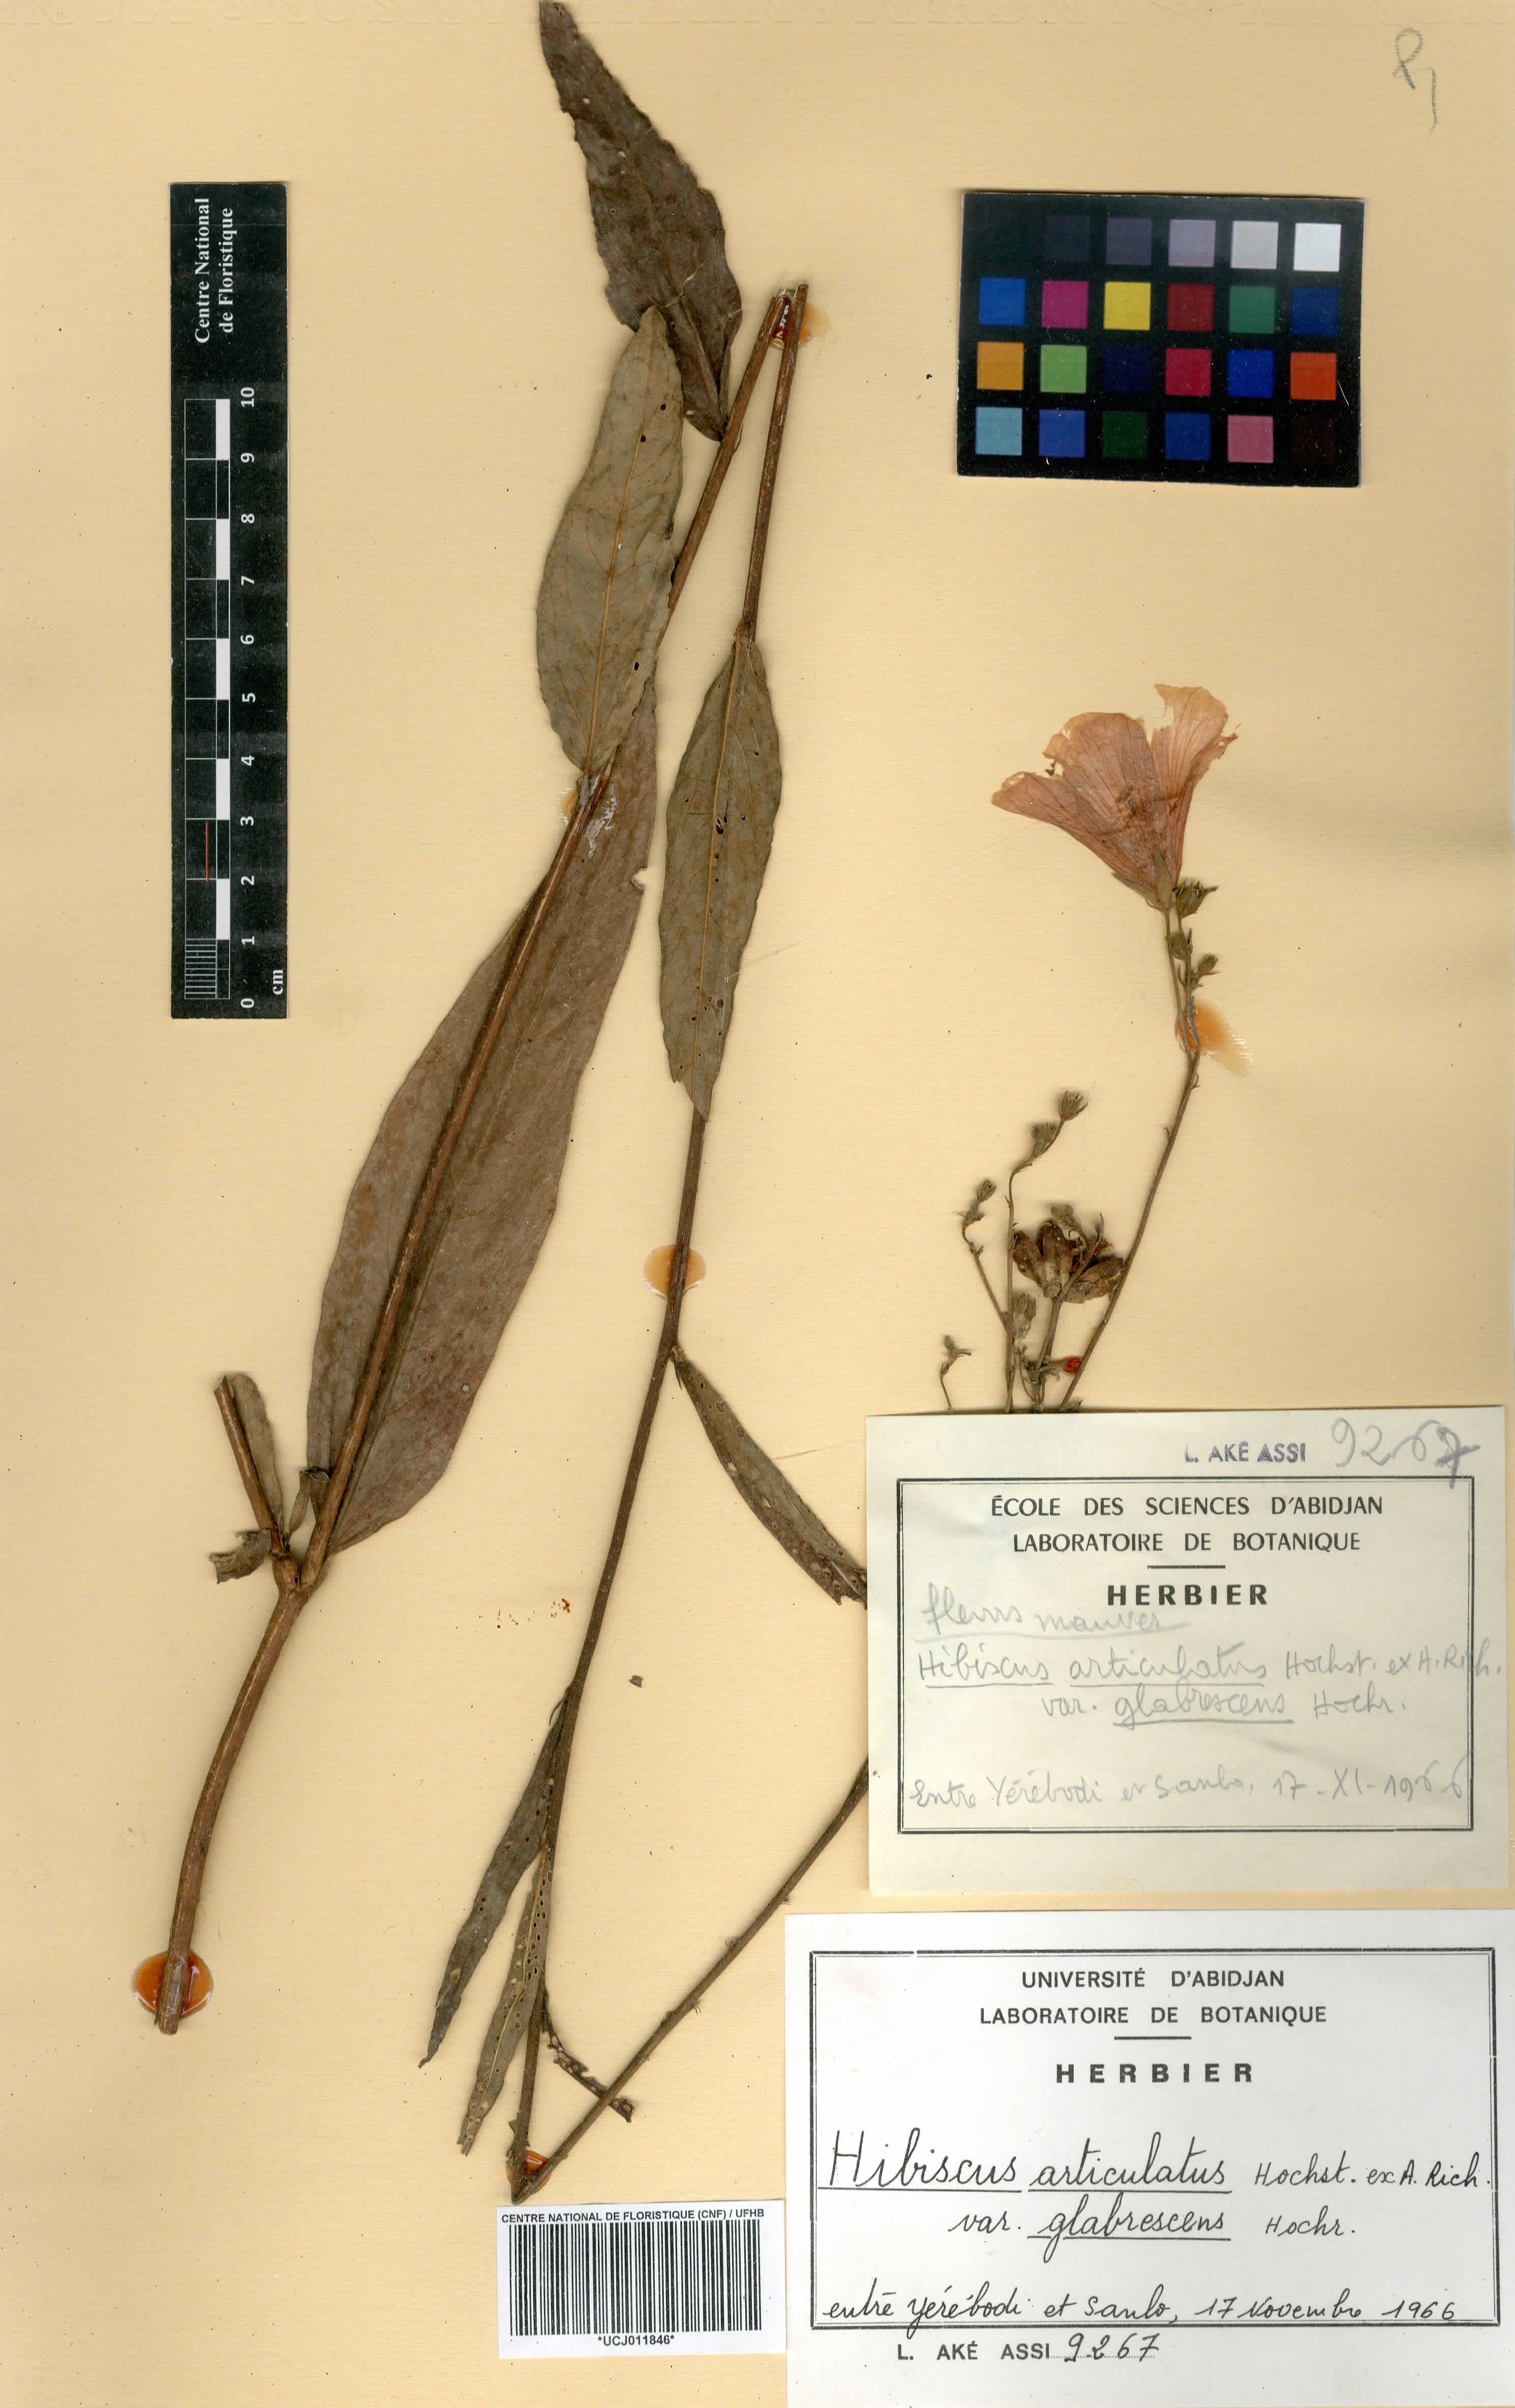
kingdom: Plantae
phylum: Tracheophyta
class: Magnoliopsida
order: Malvales
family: Malvaceae
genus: Hibiscus
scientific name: Hibiscus articulatus
